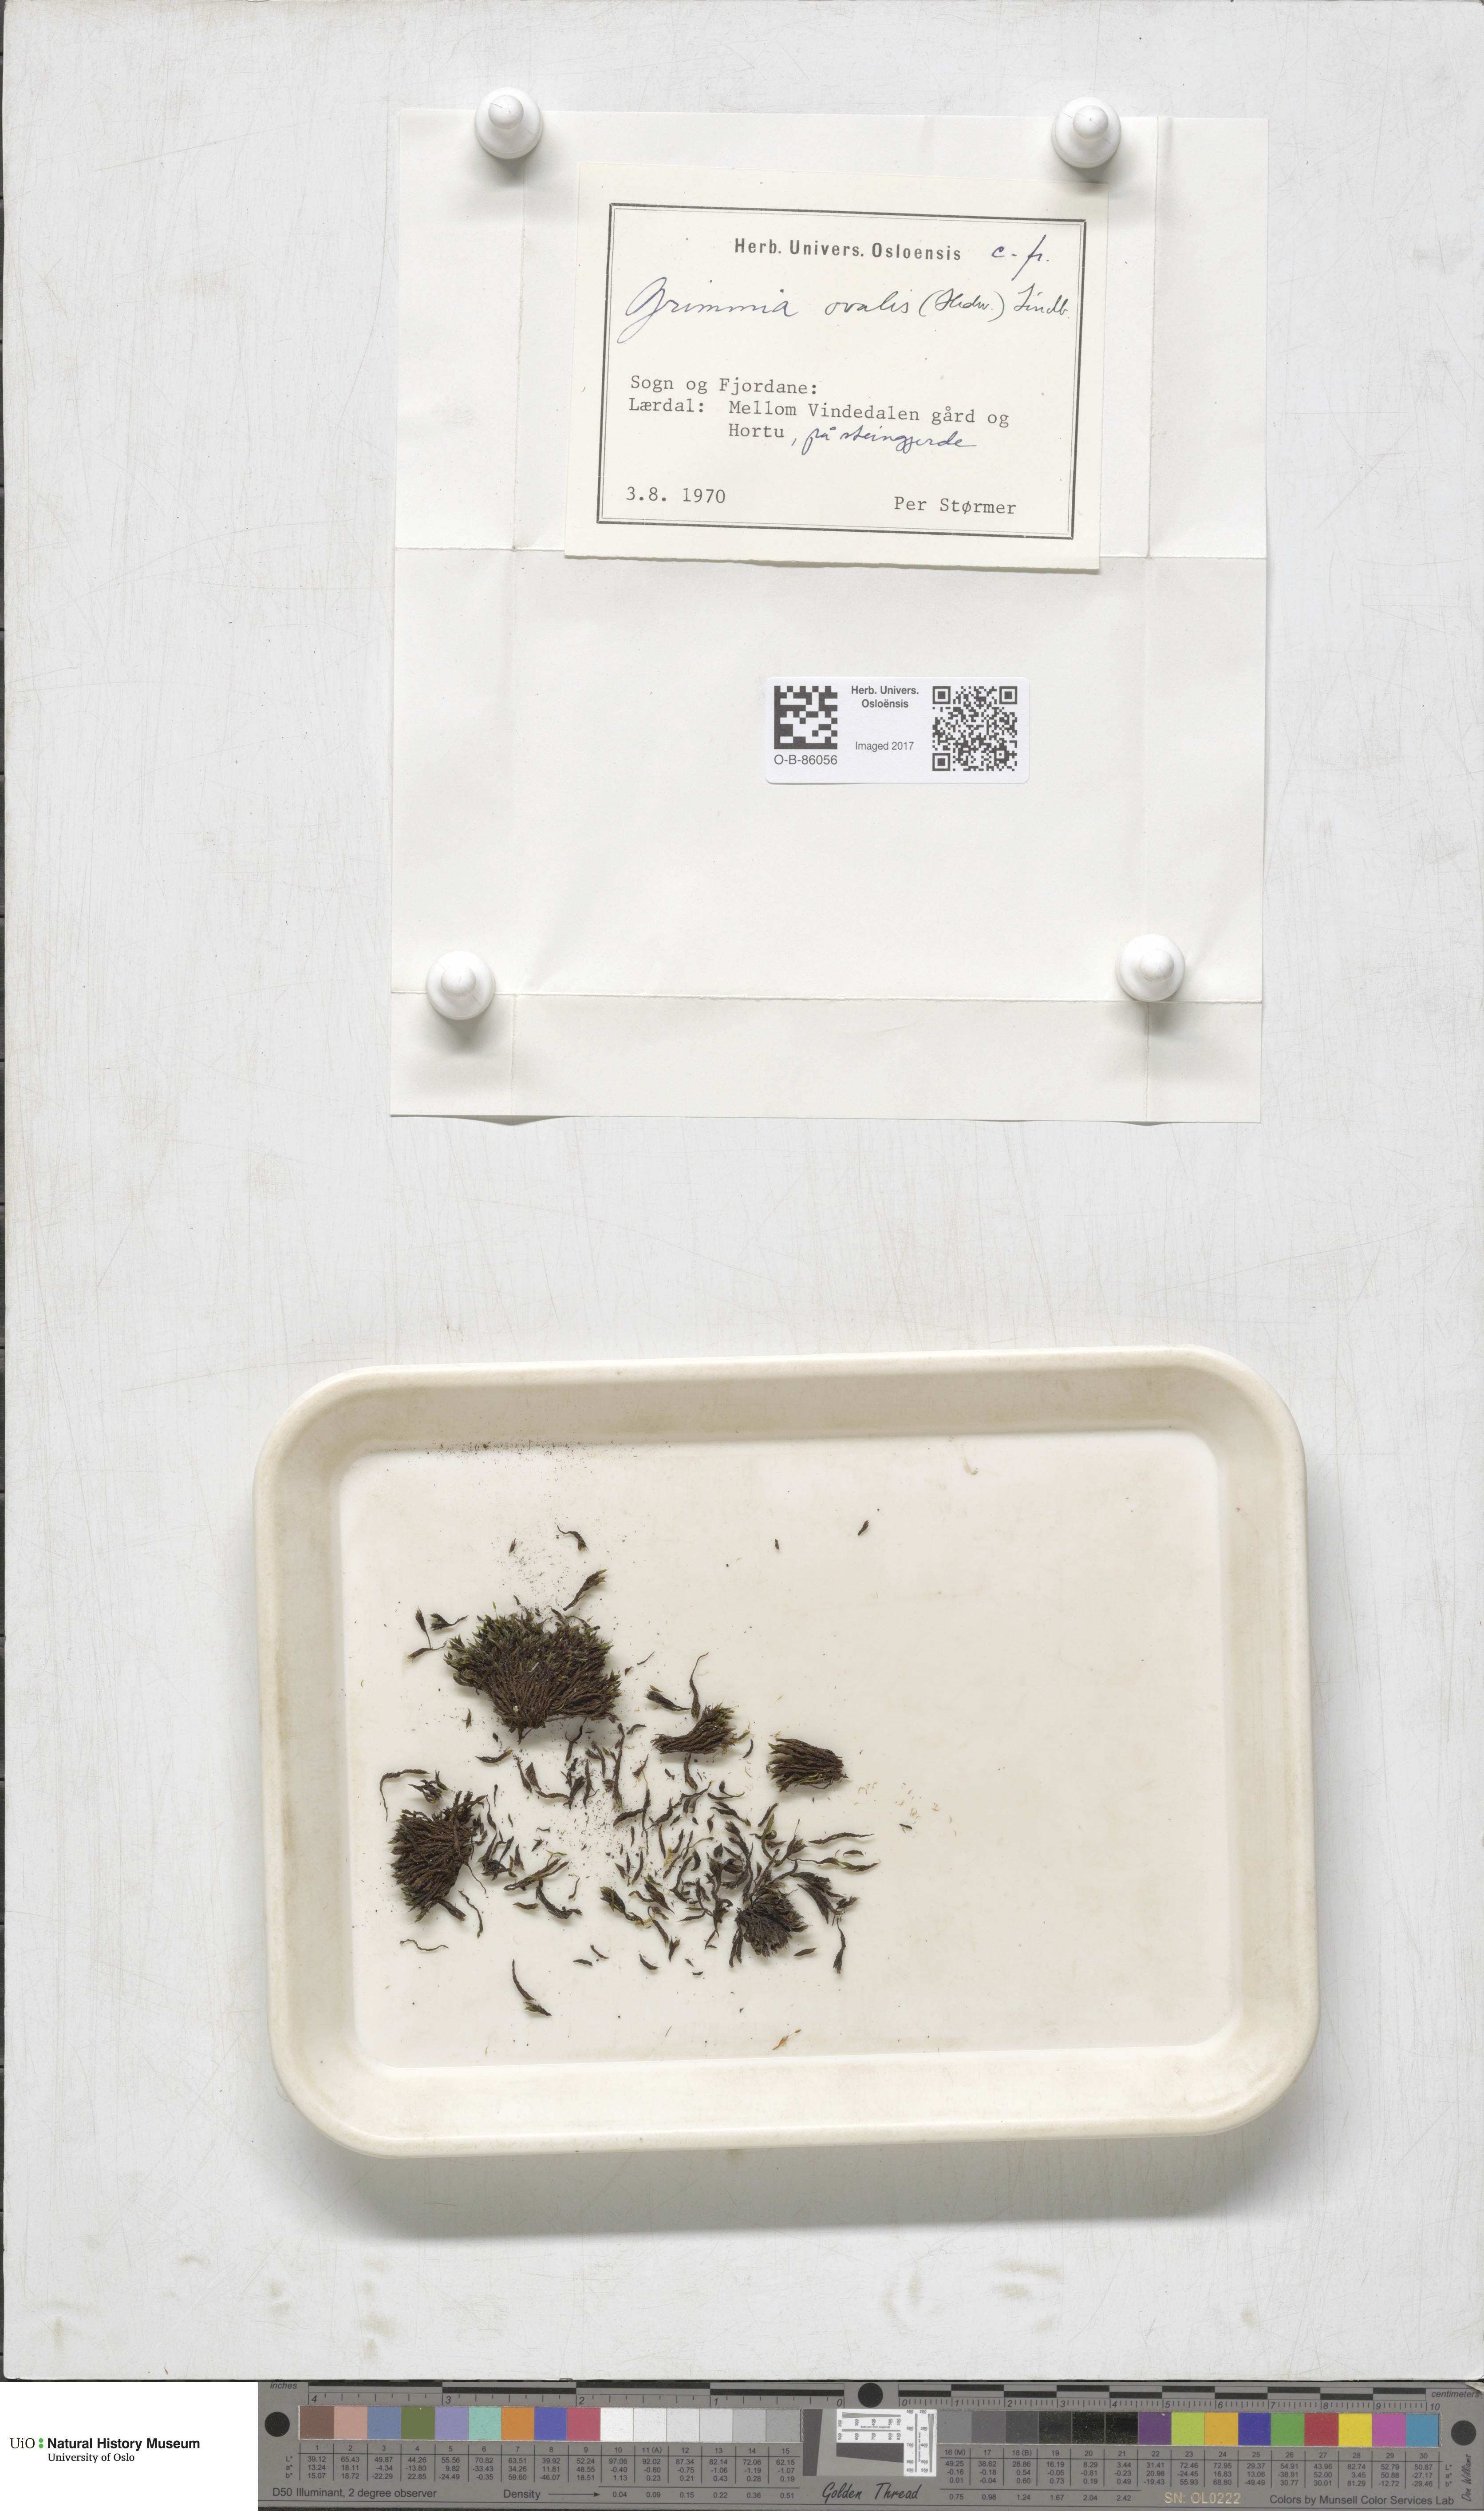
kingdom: Plantae
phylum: Bryophyta
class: Bryopsida
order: Grimmiales
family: Grimmiaceae
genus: Grimmia
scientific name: Grimmia ovalis
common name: Oval grimmia
